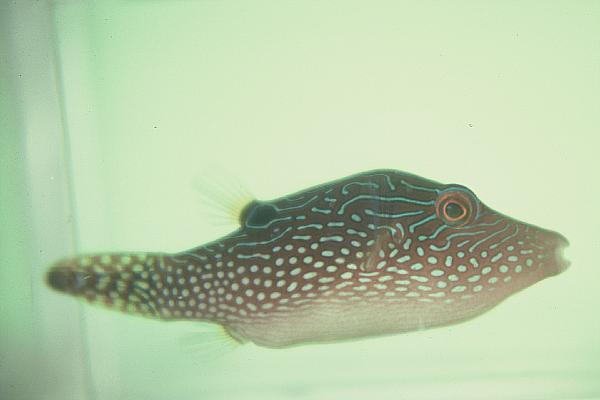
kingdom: Animalia
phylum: Chordata
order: Tetraodontiformes
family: Tetraodontidae
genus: Canthigaster
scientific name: Canthigaster solandri
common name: False-eye toby
